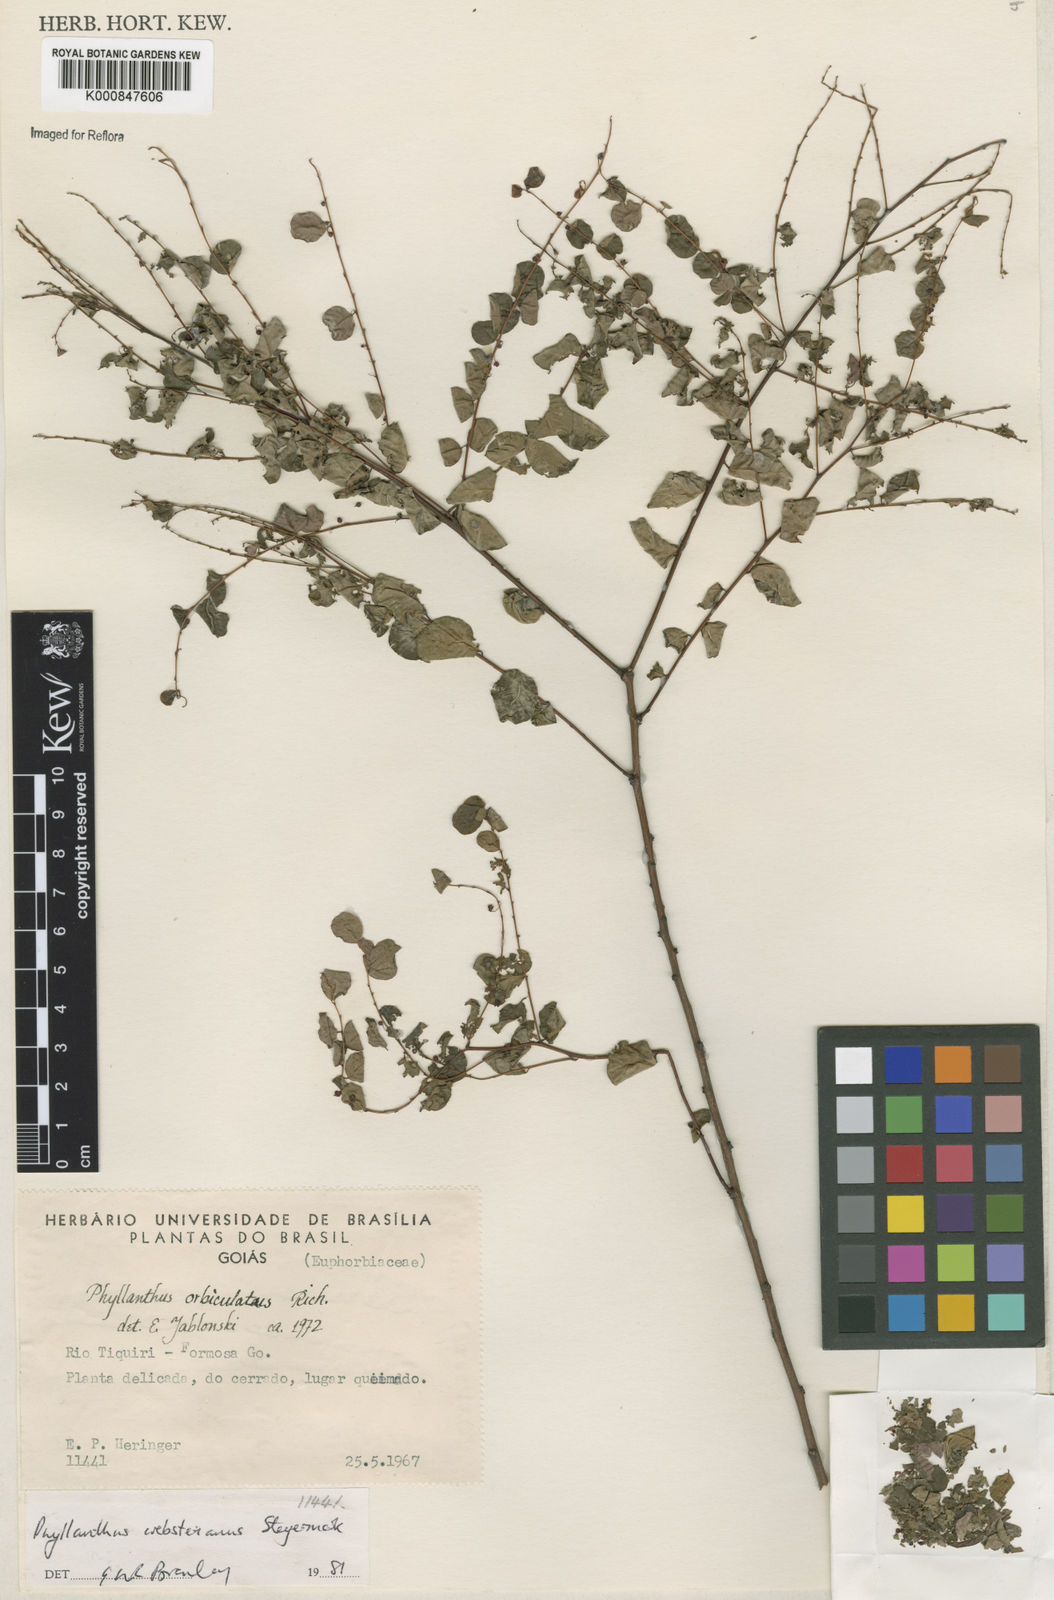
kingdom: Plantae
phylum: Tracheophyta
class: Magnoliopsida
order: Malpighiales
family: Phyllanthaceae
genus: Phyllanthus
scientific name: Phyllanthus websterianus
